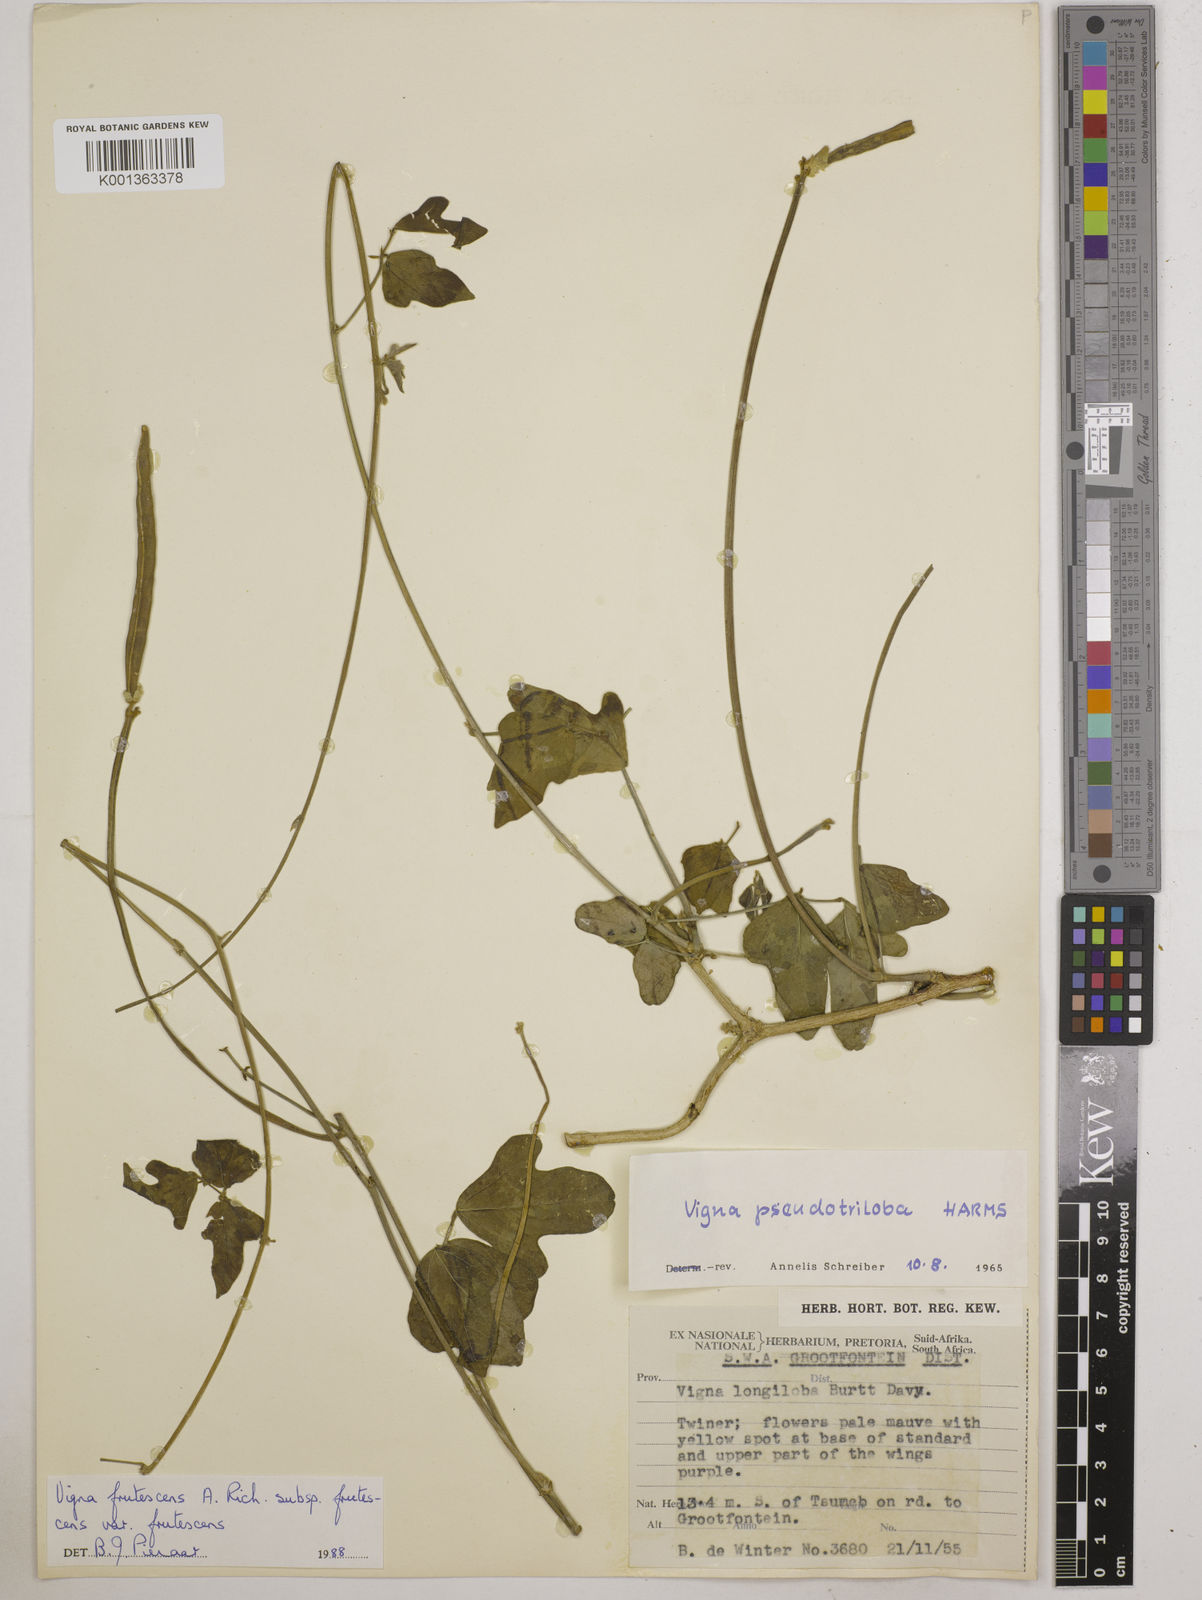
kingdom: Plantae
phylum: Tracheophyta
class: Magnoliopsida
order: Fabales
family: Fabaceae
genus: Vigna
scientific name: Vigna frutescens
